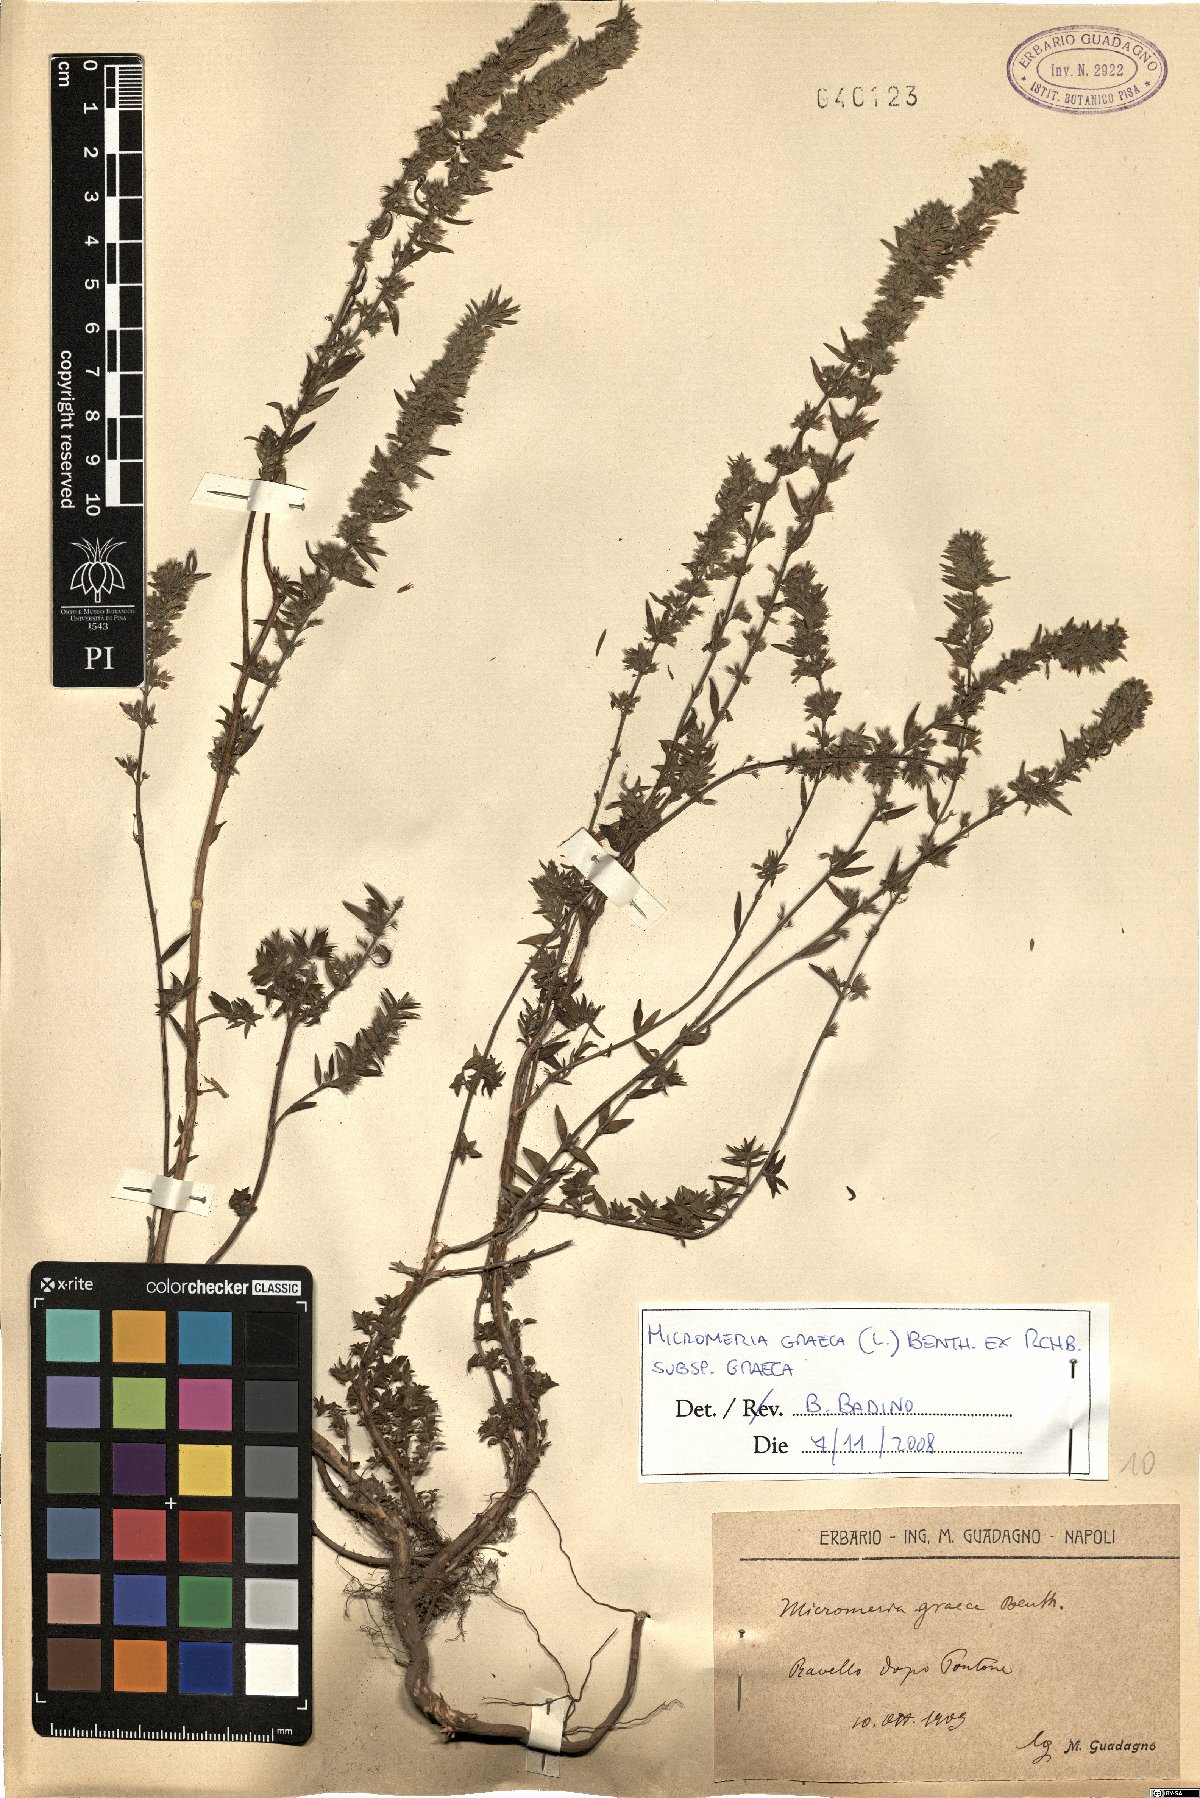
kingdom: Plantae
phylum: Tracheophyta
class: Magnoliopsida
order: Lamiales
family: Lamiaceae
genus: Micromeria
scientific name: Micromeria graeca
